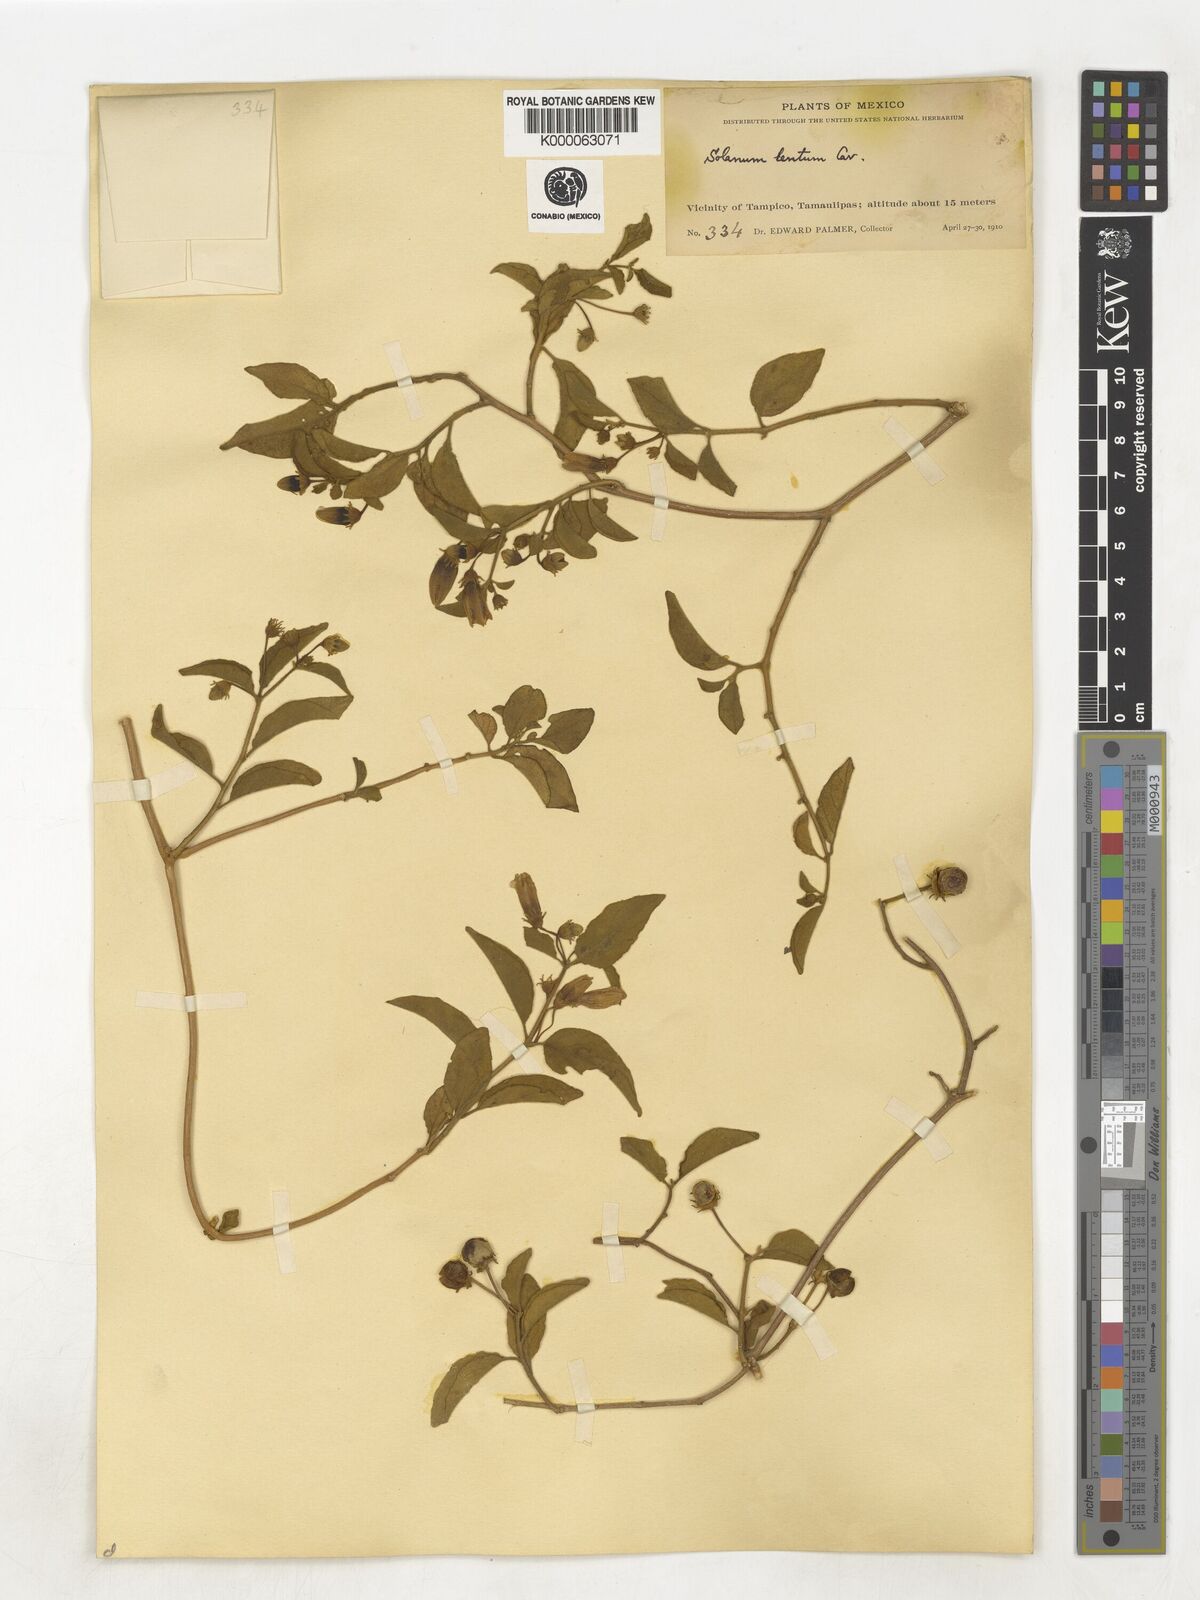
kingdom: Plantae
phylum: Tracheophyta
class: Magnoliopsida
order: Solanales
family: Solanaceae
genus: Lycianthes
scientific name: Lycianthes scandens
